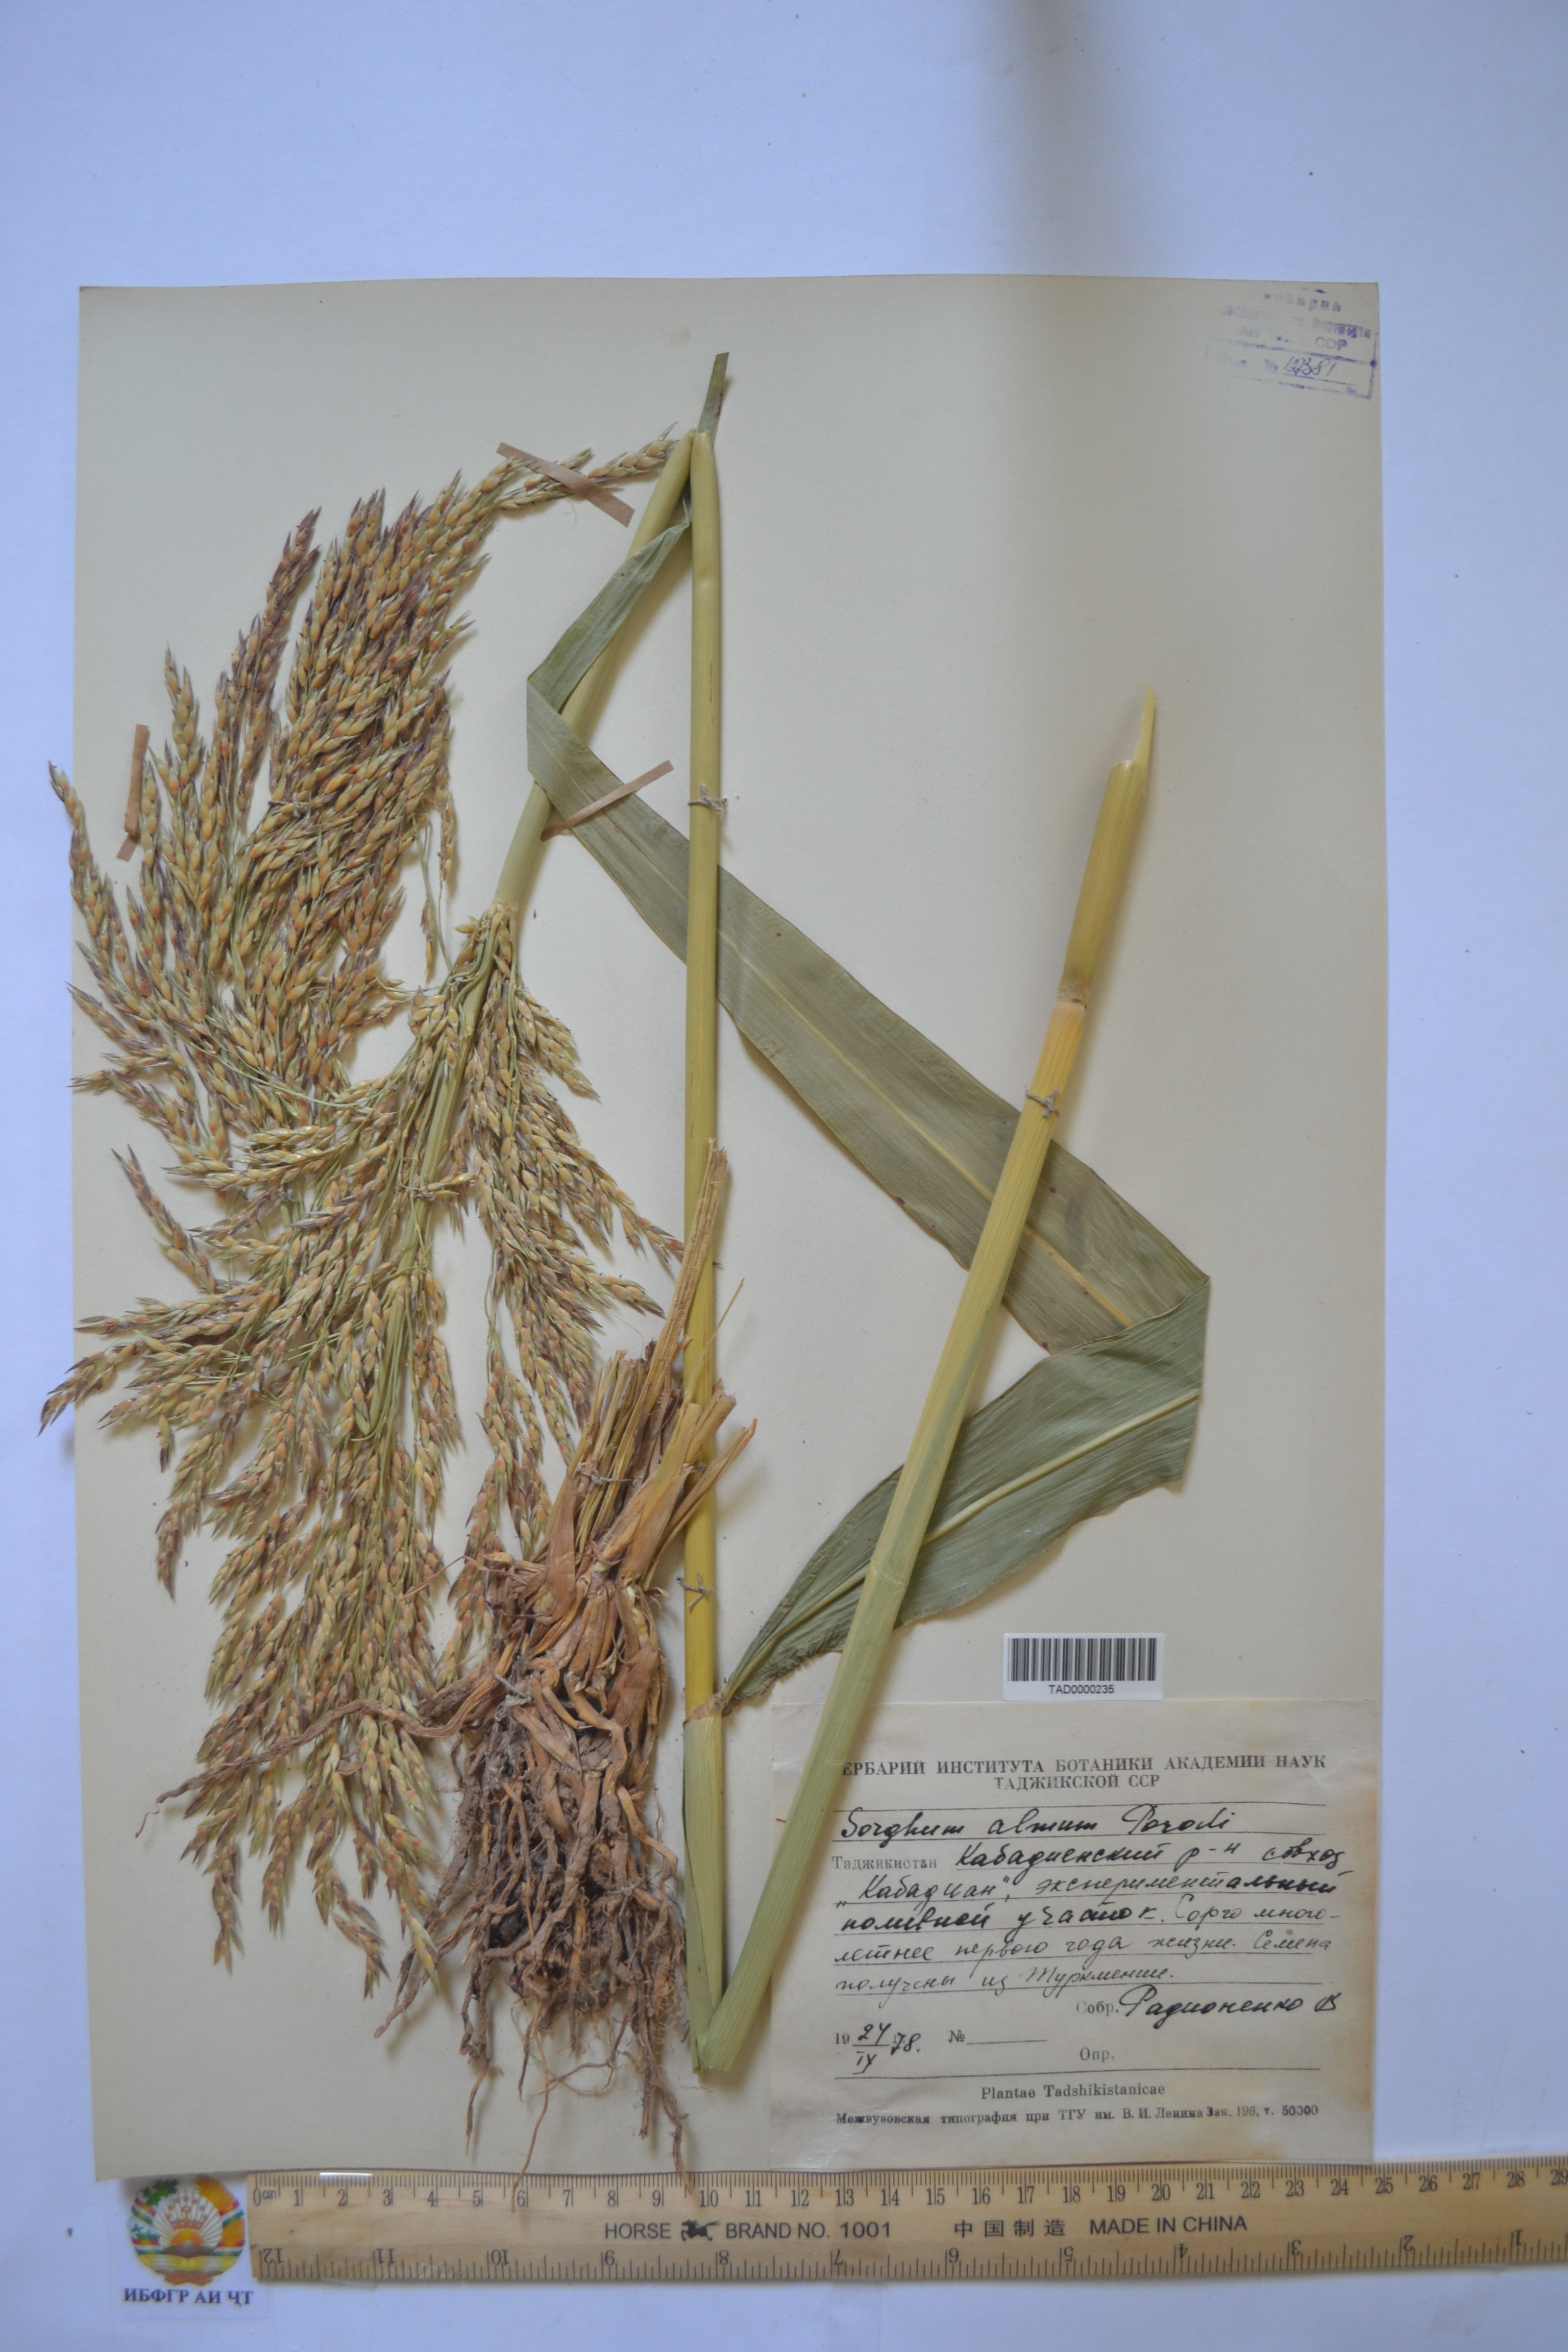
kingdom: Plantae
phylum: Tracheophyta
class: Liliopsida
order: Poales
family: Poaceae
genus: Sorghum
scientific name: Sorghum almum
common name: Columbus grass
